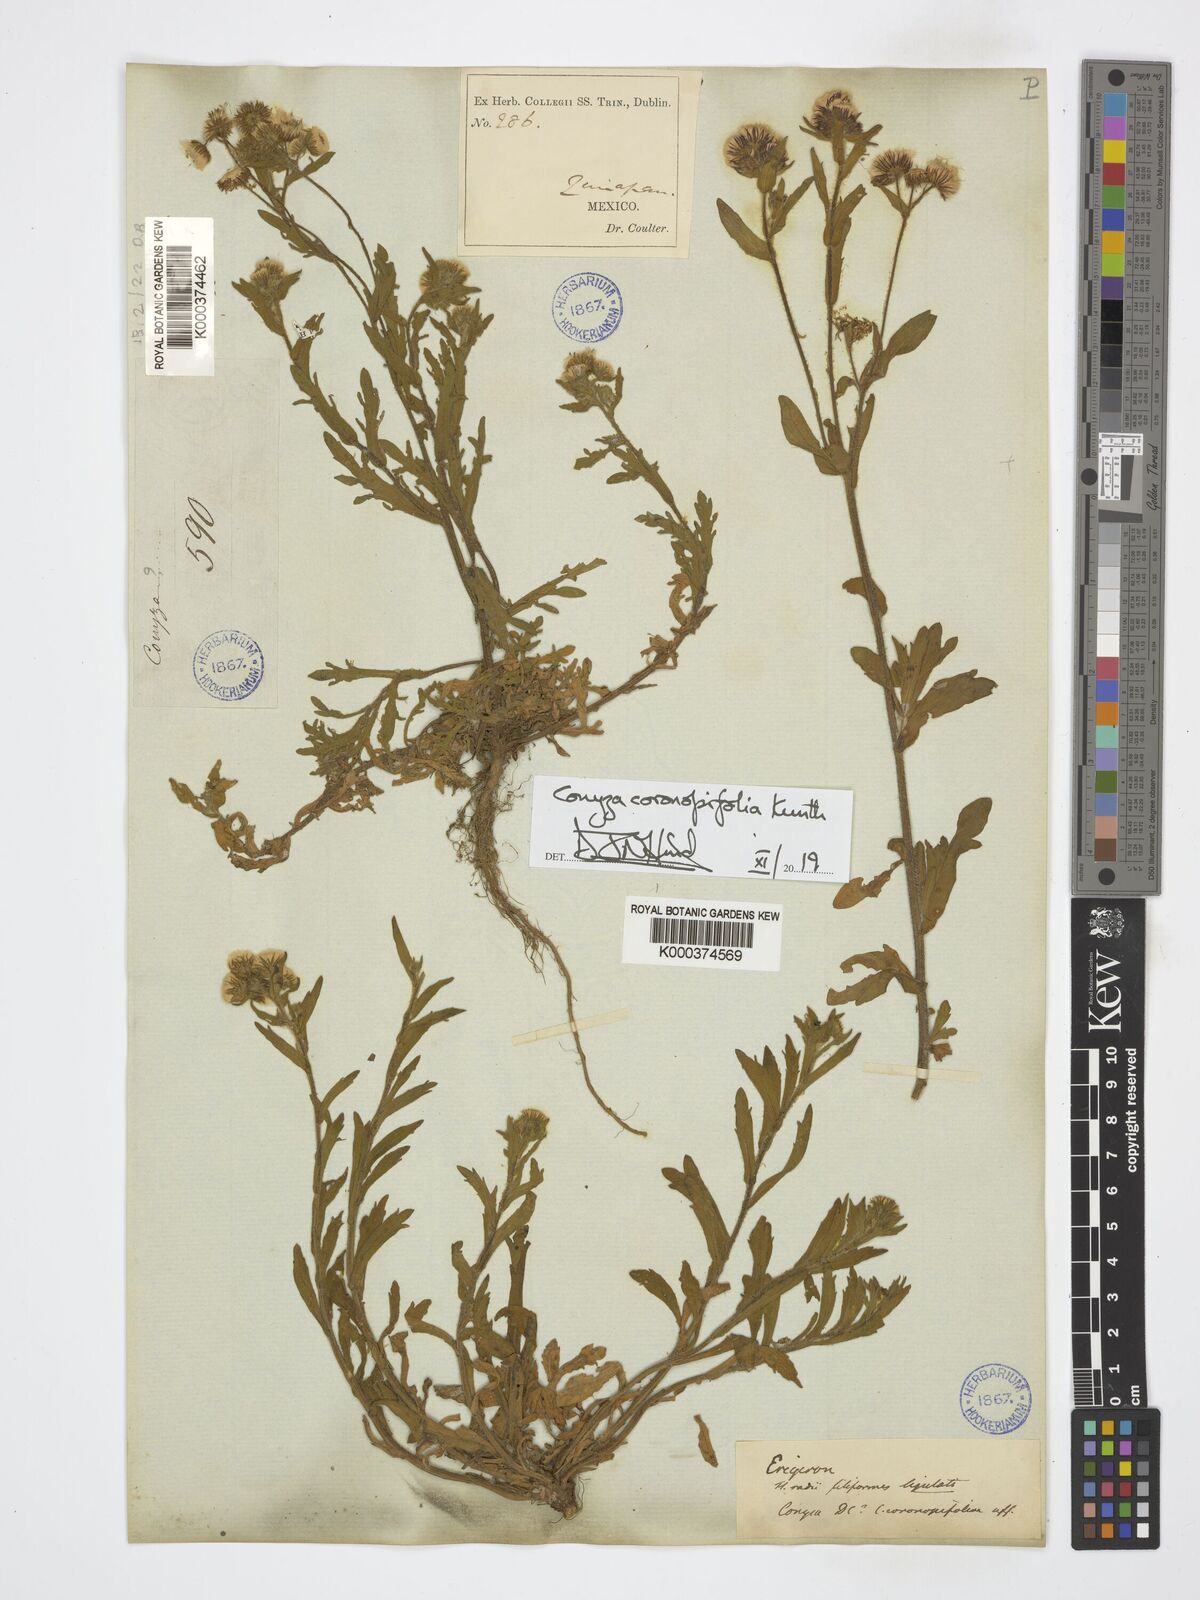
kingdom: Plantae
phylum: Tracheophyta
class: Magnoliopsida
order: Asterales
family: Asteraceae
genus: Erigeron
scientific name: Erigeron variifolius
